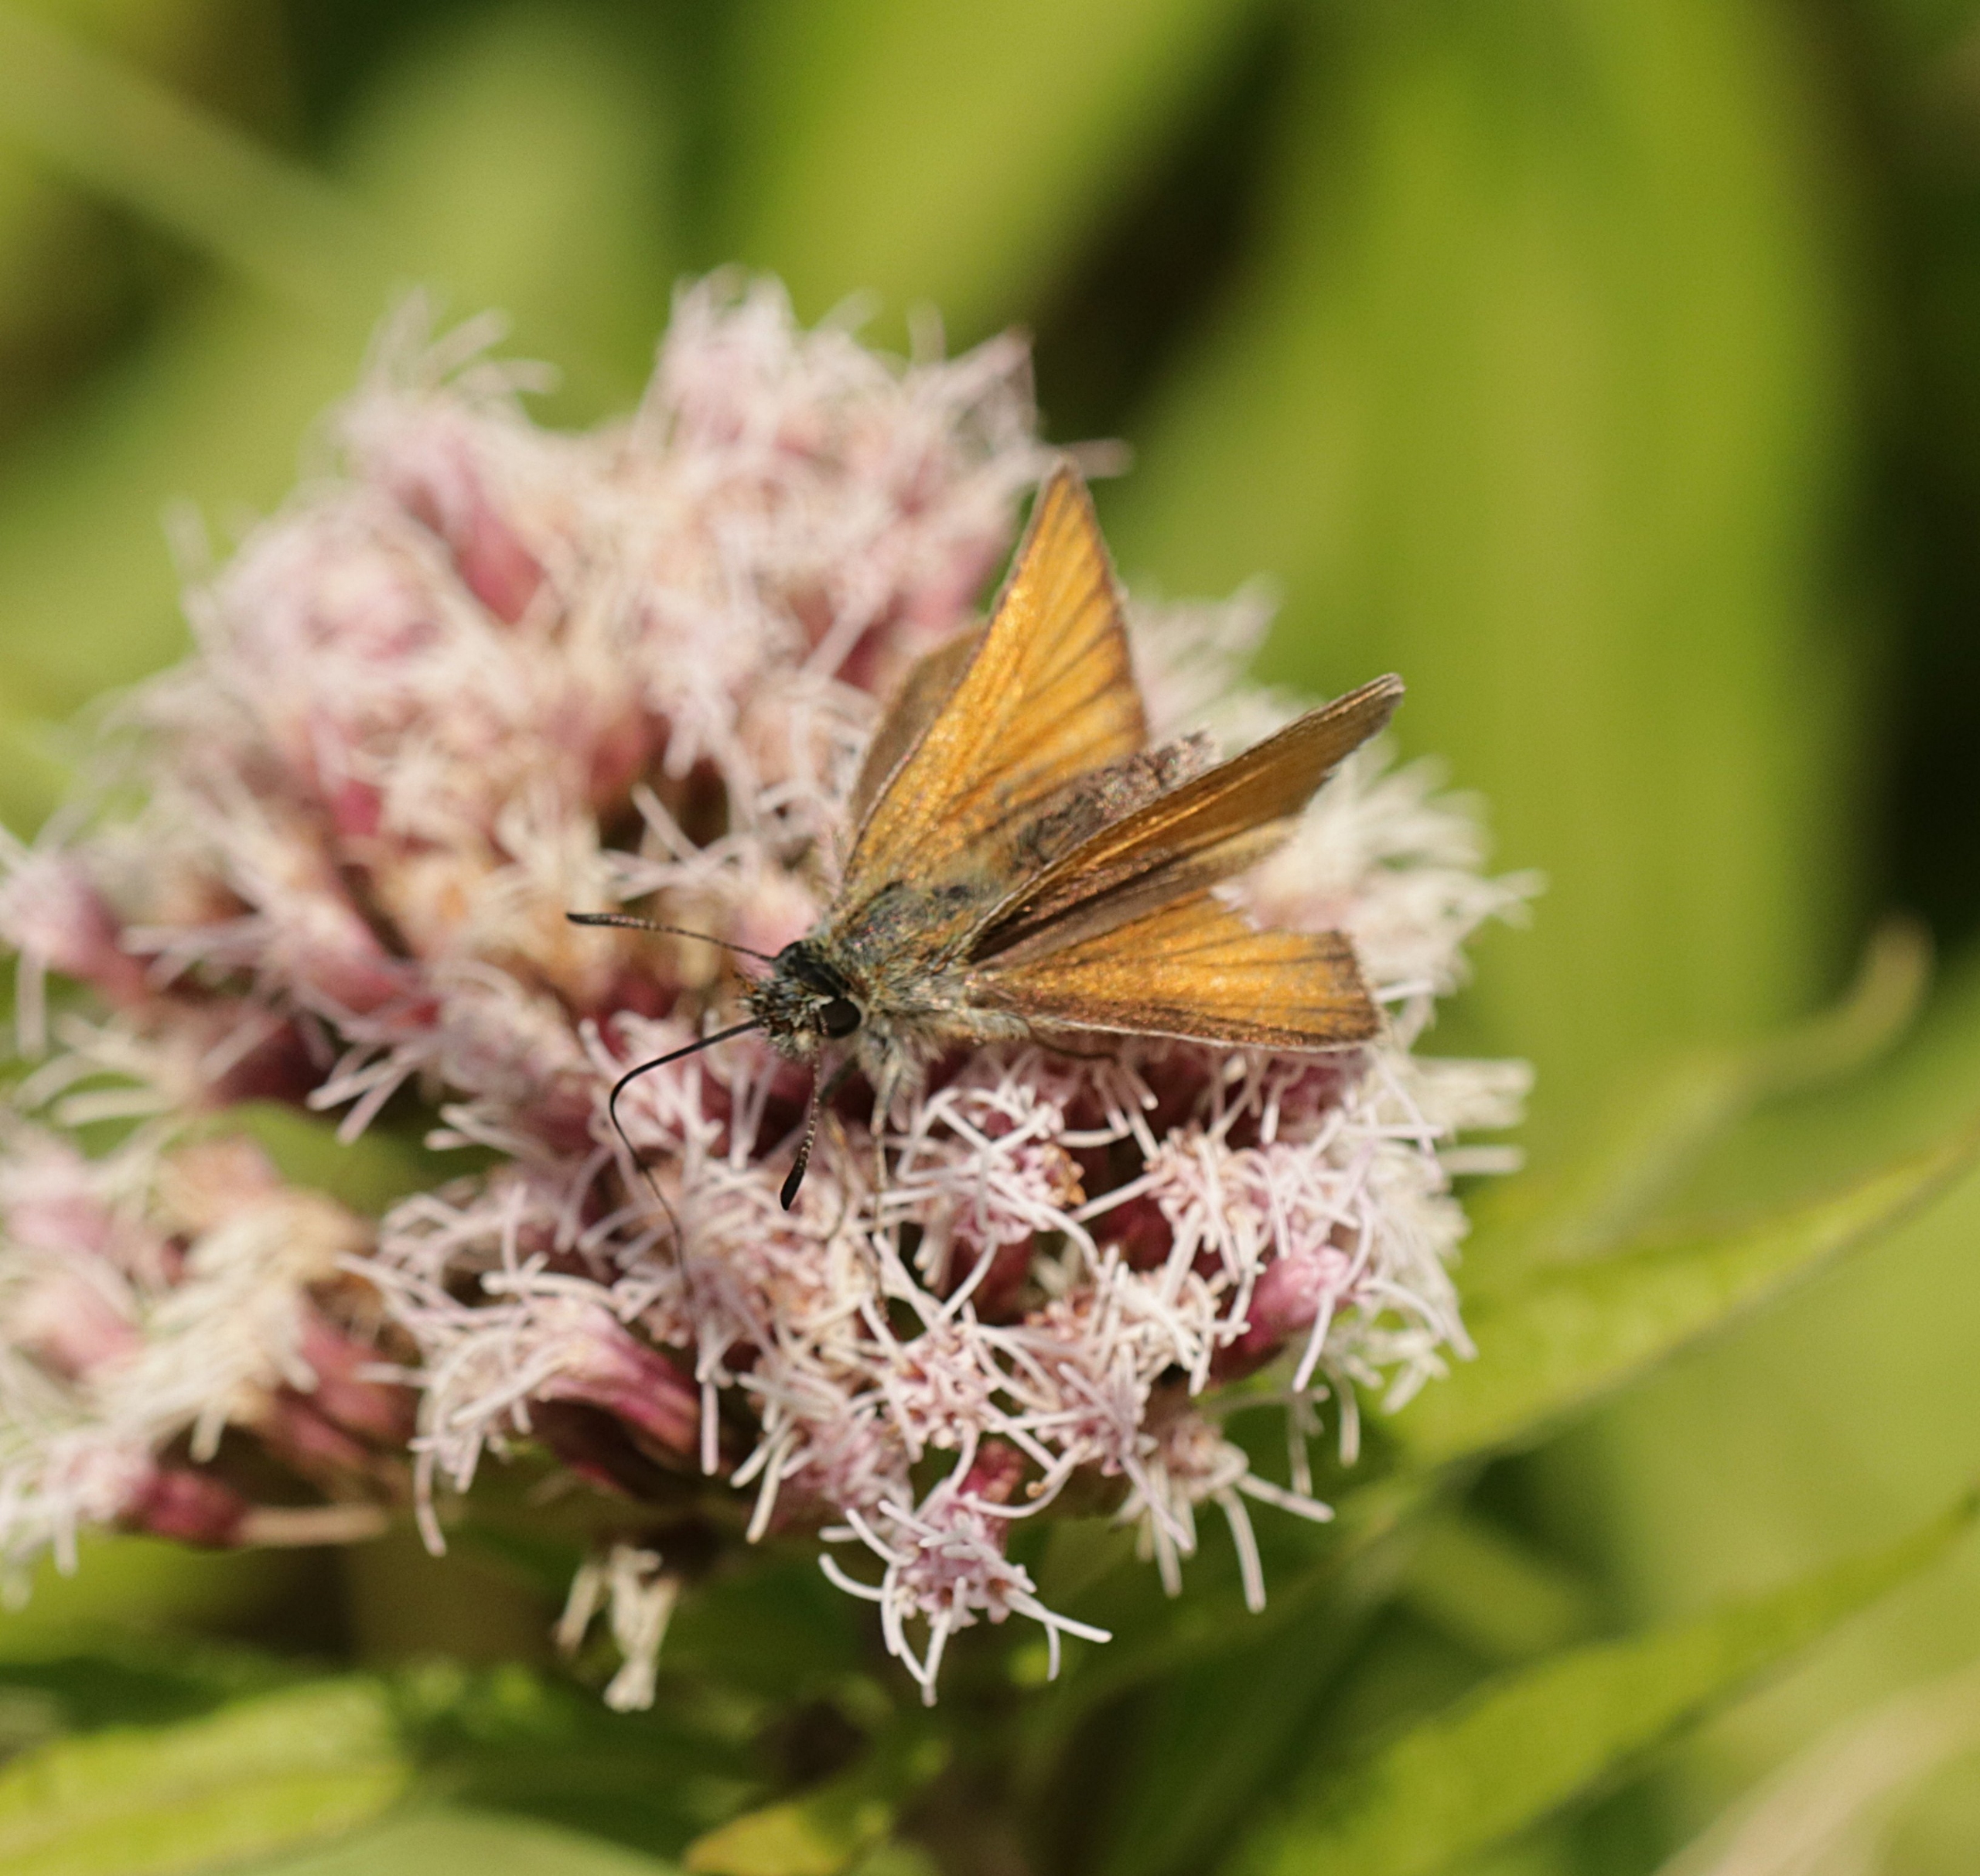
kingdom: Animalia
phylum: Arthropoda
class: Insecta
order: Lepidoptera
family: Hesperiidae
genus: Thymelicus
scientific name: Thymelicus lineola
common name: Stregbredpande
